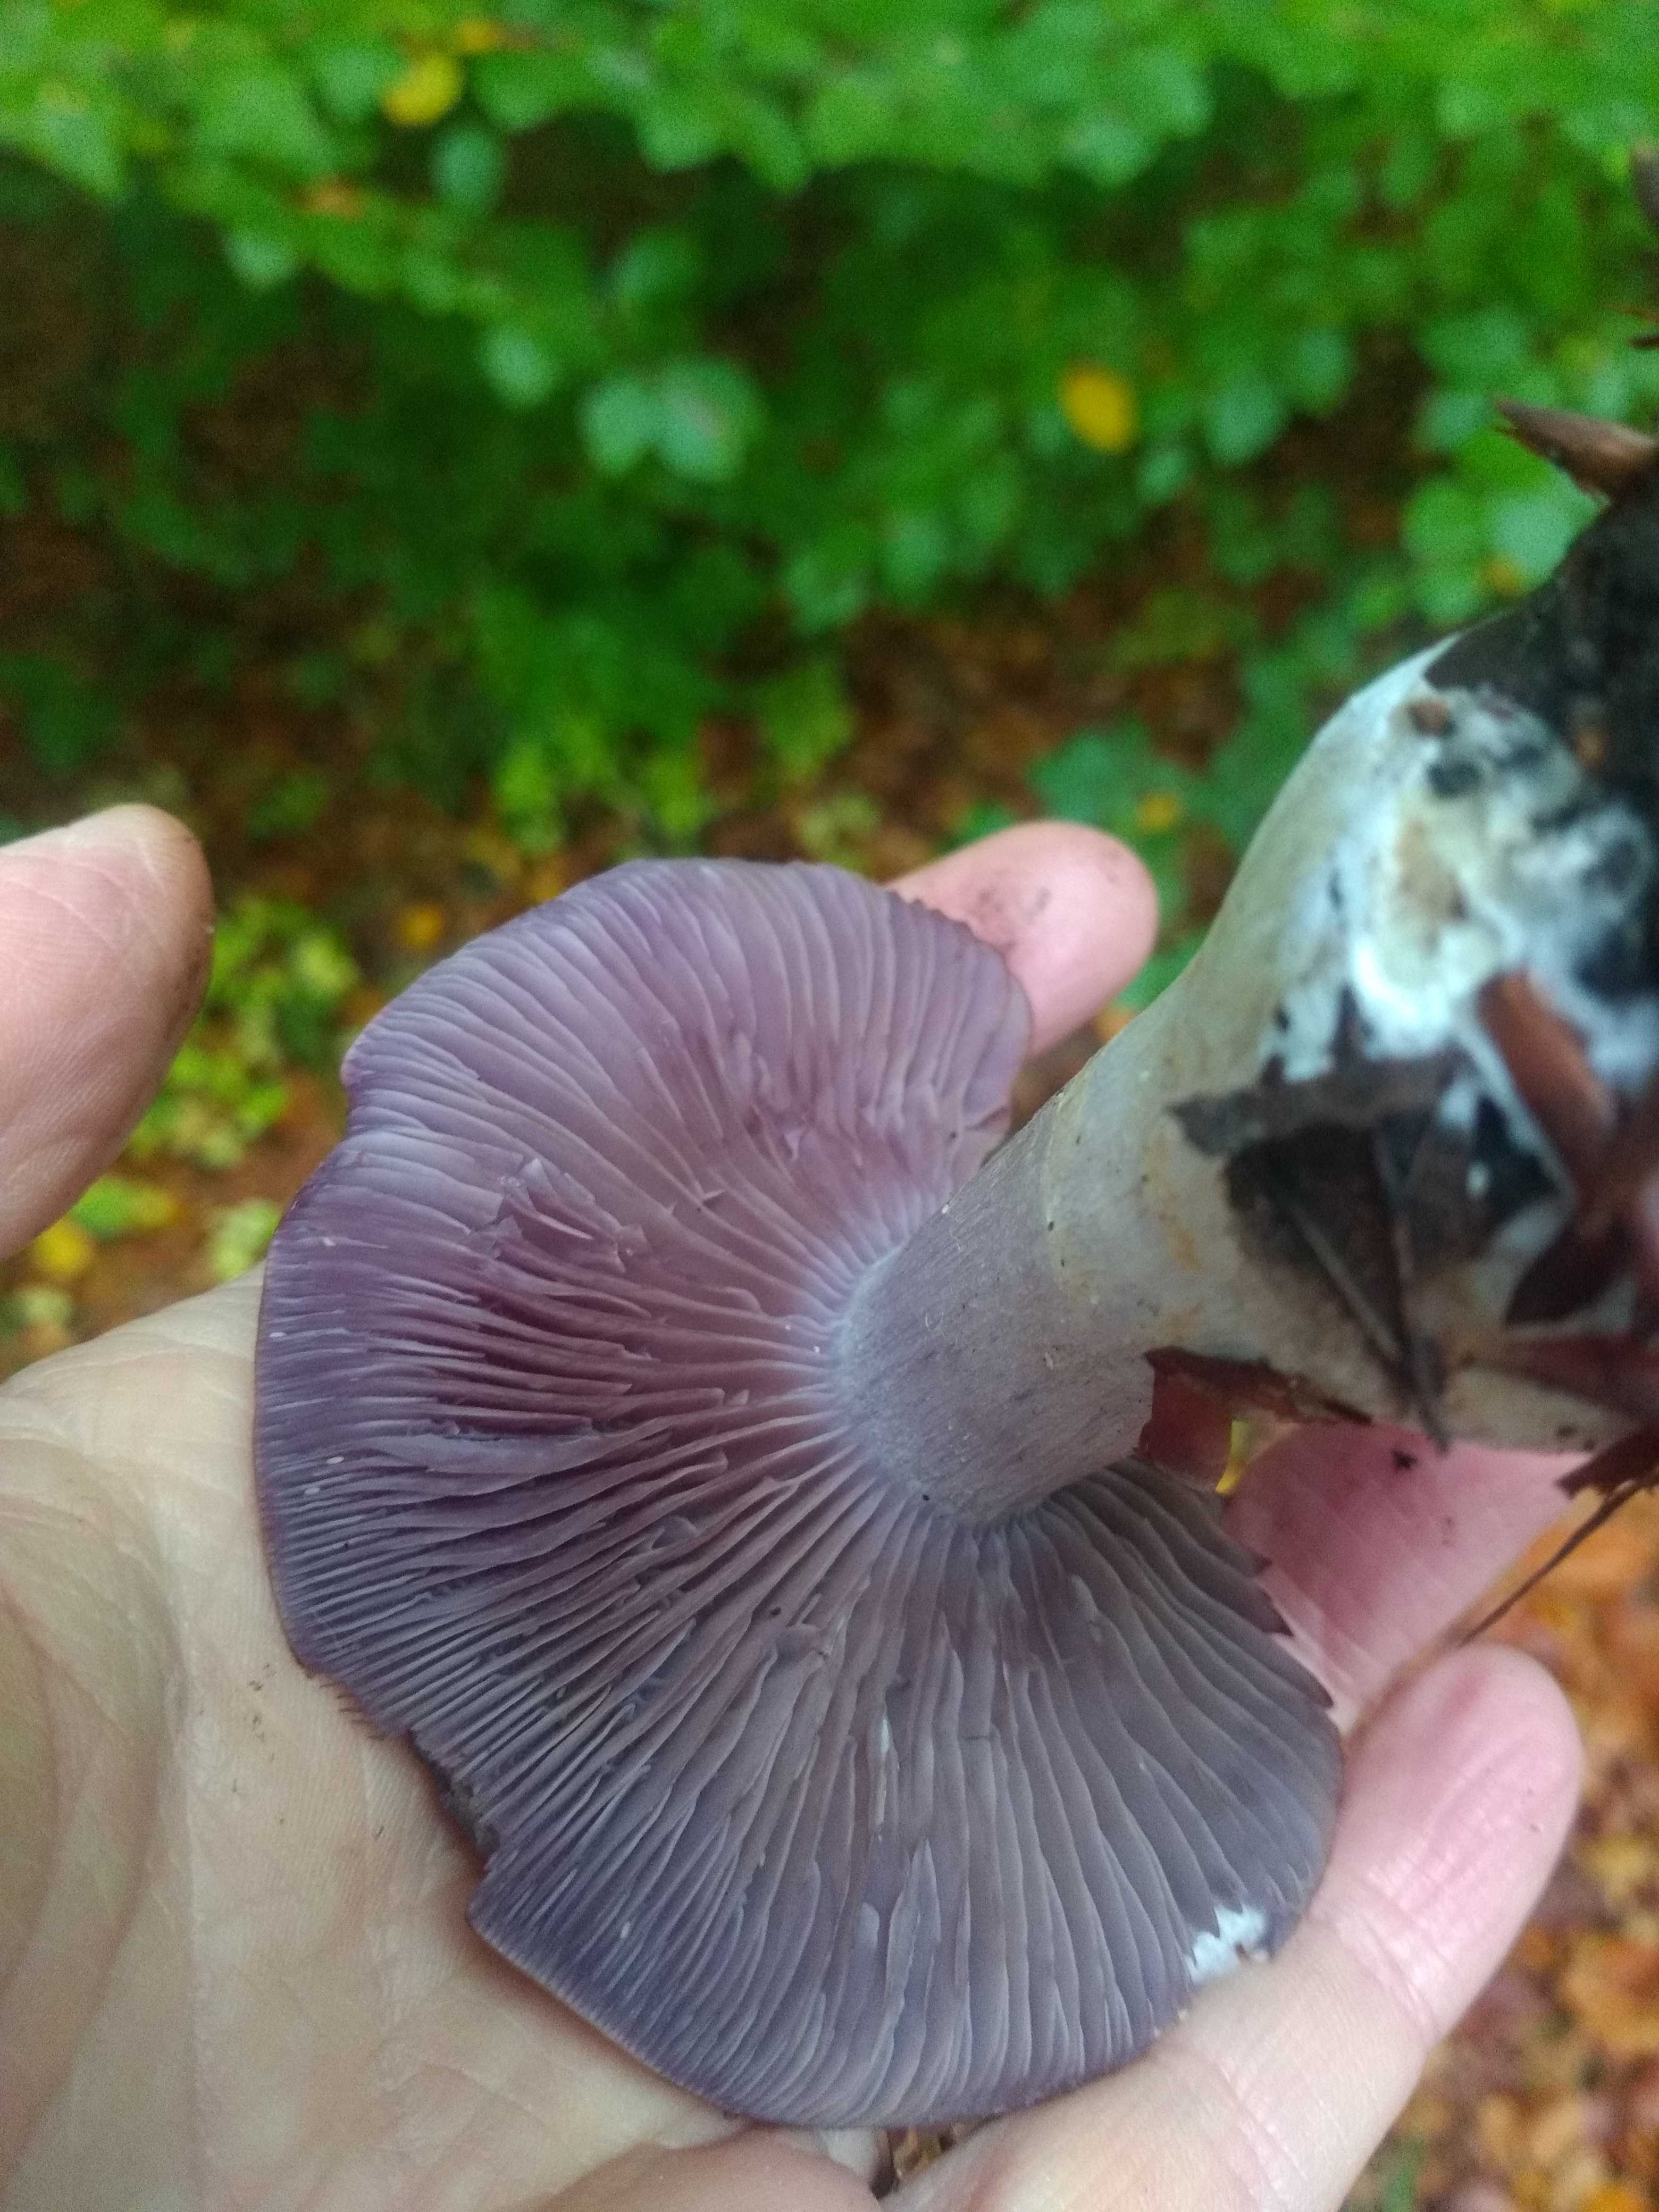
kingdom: Fungi
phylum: Basidiomycota
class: Agaricomycetes
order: Agaricales
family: Cortinariaceae
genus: Cortinarius
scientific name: Cortinarius
